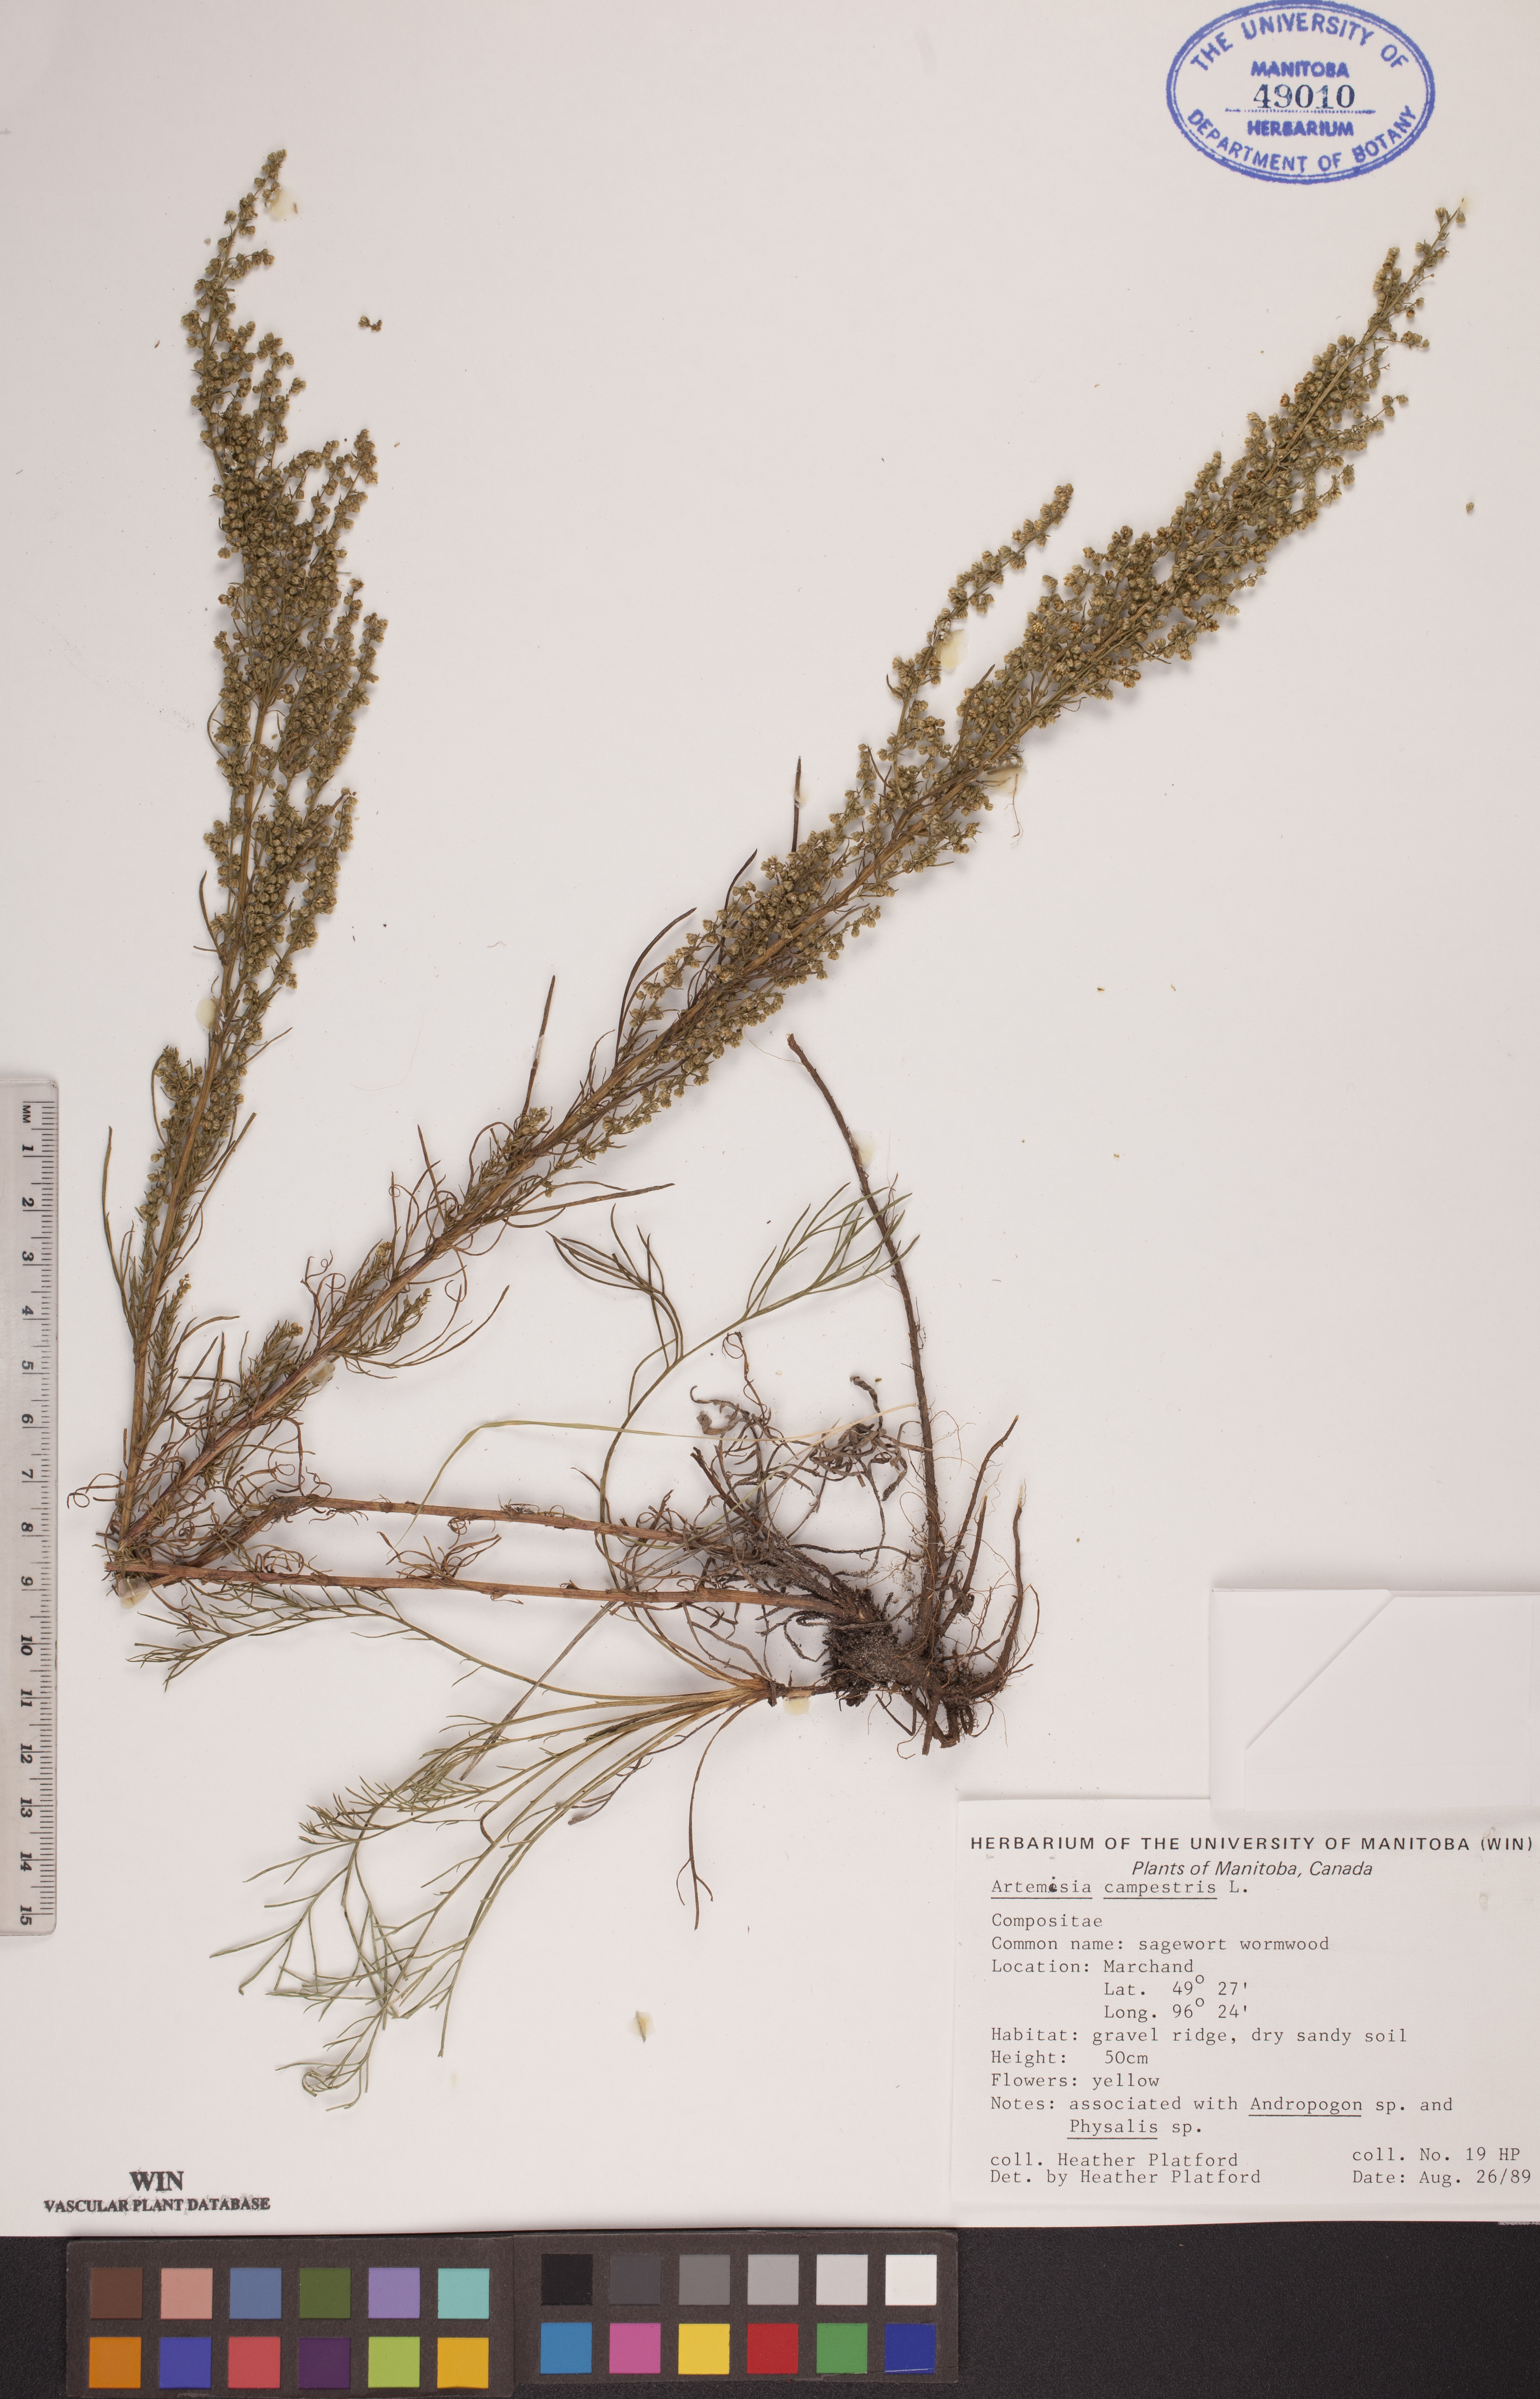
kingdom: Plantae
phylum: Tracheophyta
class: Magnoliopsida
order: Asterales
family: Asteraceae
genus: Artemisia
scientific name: Artemisia campestris
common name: Field wormwood
